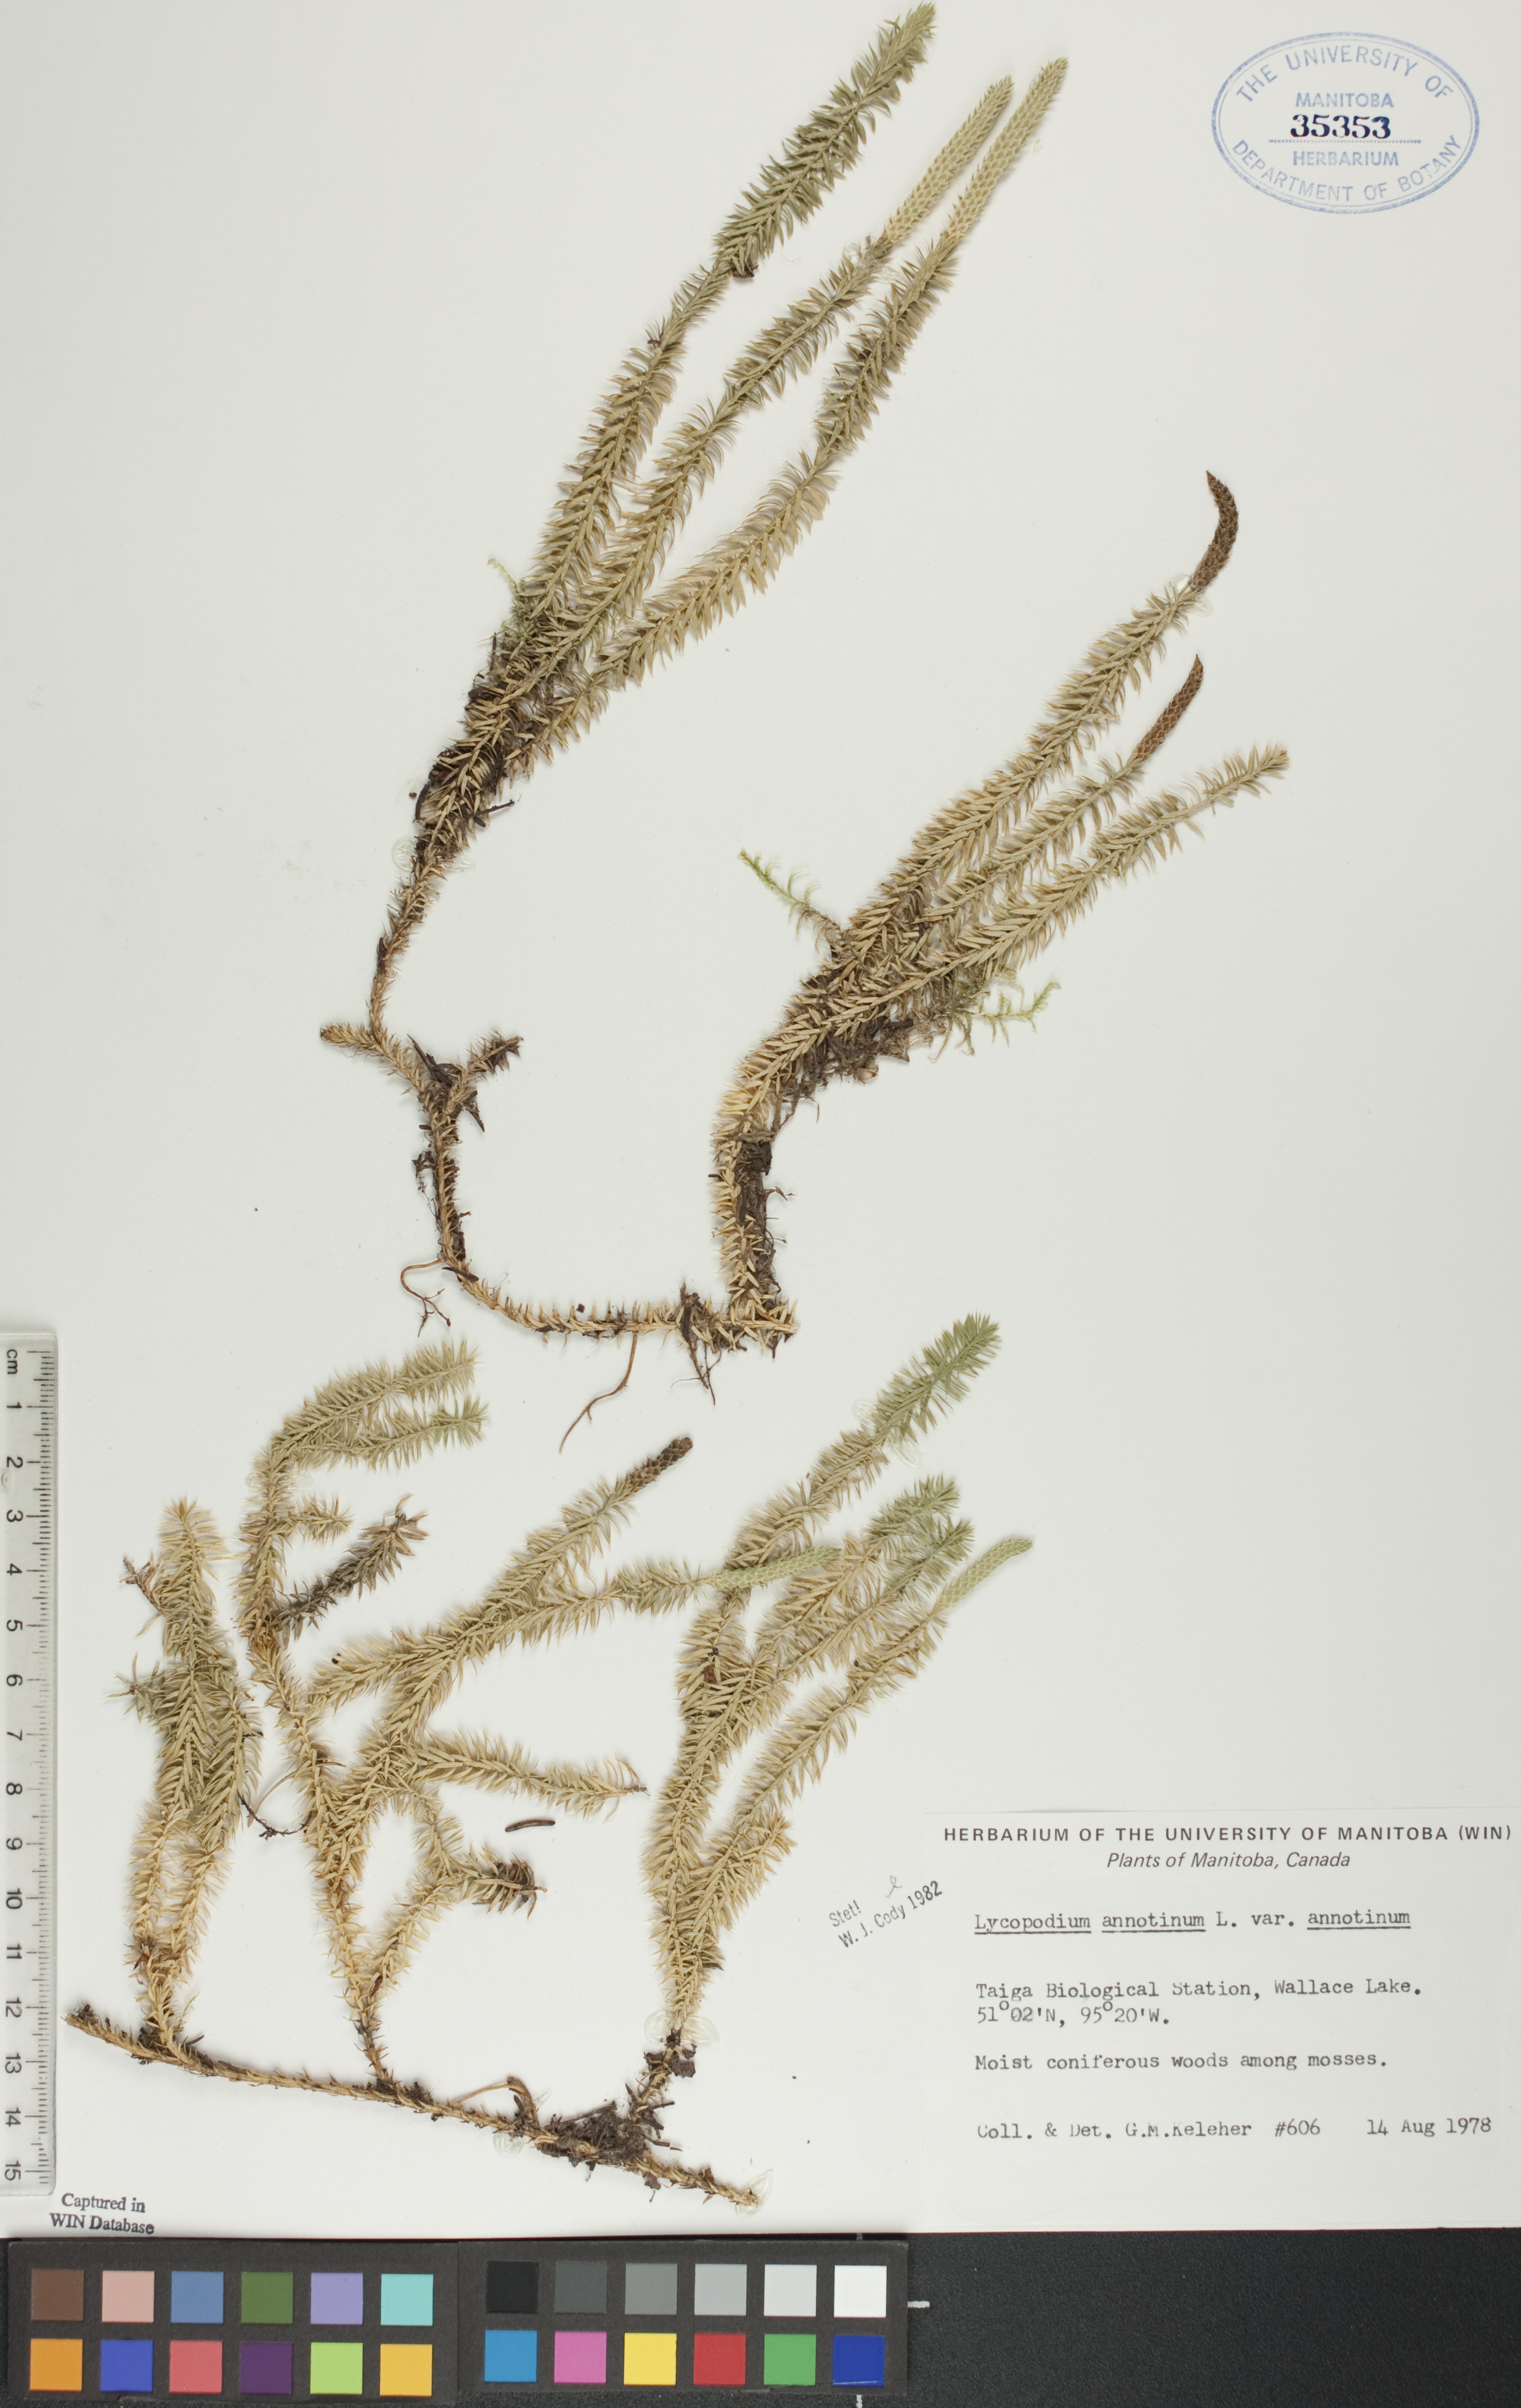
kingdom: Plantae
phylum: Tracheophyta
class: Lycopodiopsida
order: Lycopodiales
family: Lycopodiaceae
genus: Spinulum
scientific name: Spinulum annotinum
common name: Interrupted club-moss
